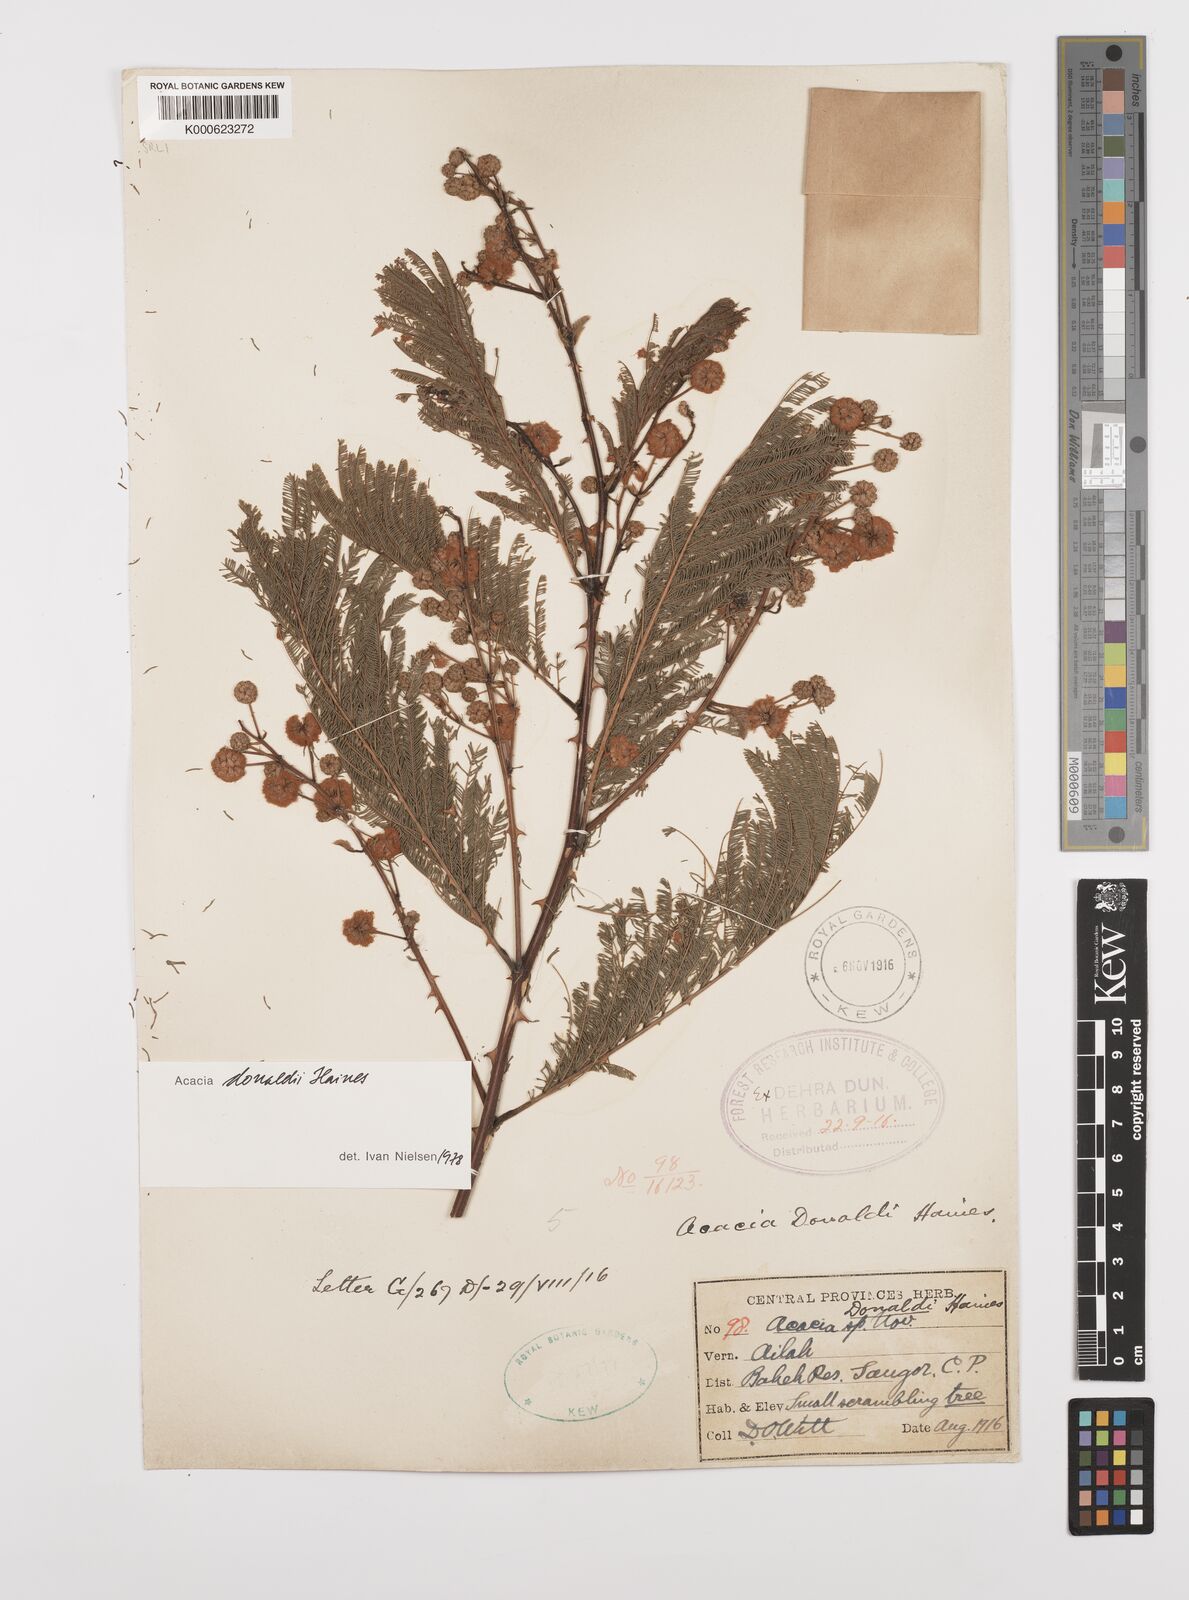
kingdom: Plantae
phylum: Tracheophyta
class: Magnoliopsida
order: Fabales
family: Fabaceae
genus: Senegalia
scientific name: Senegalia donaldi
